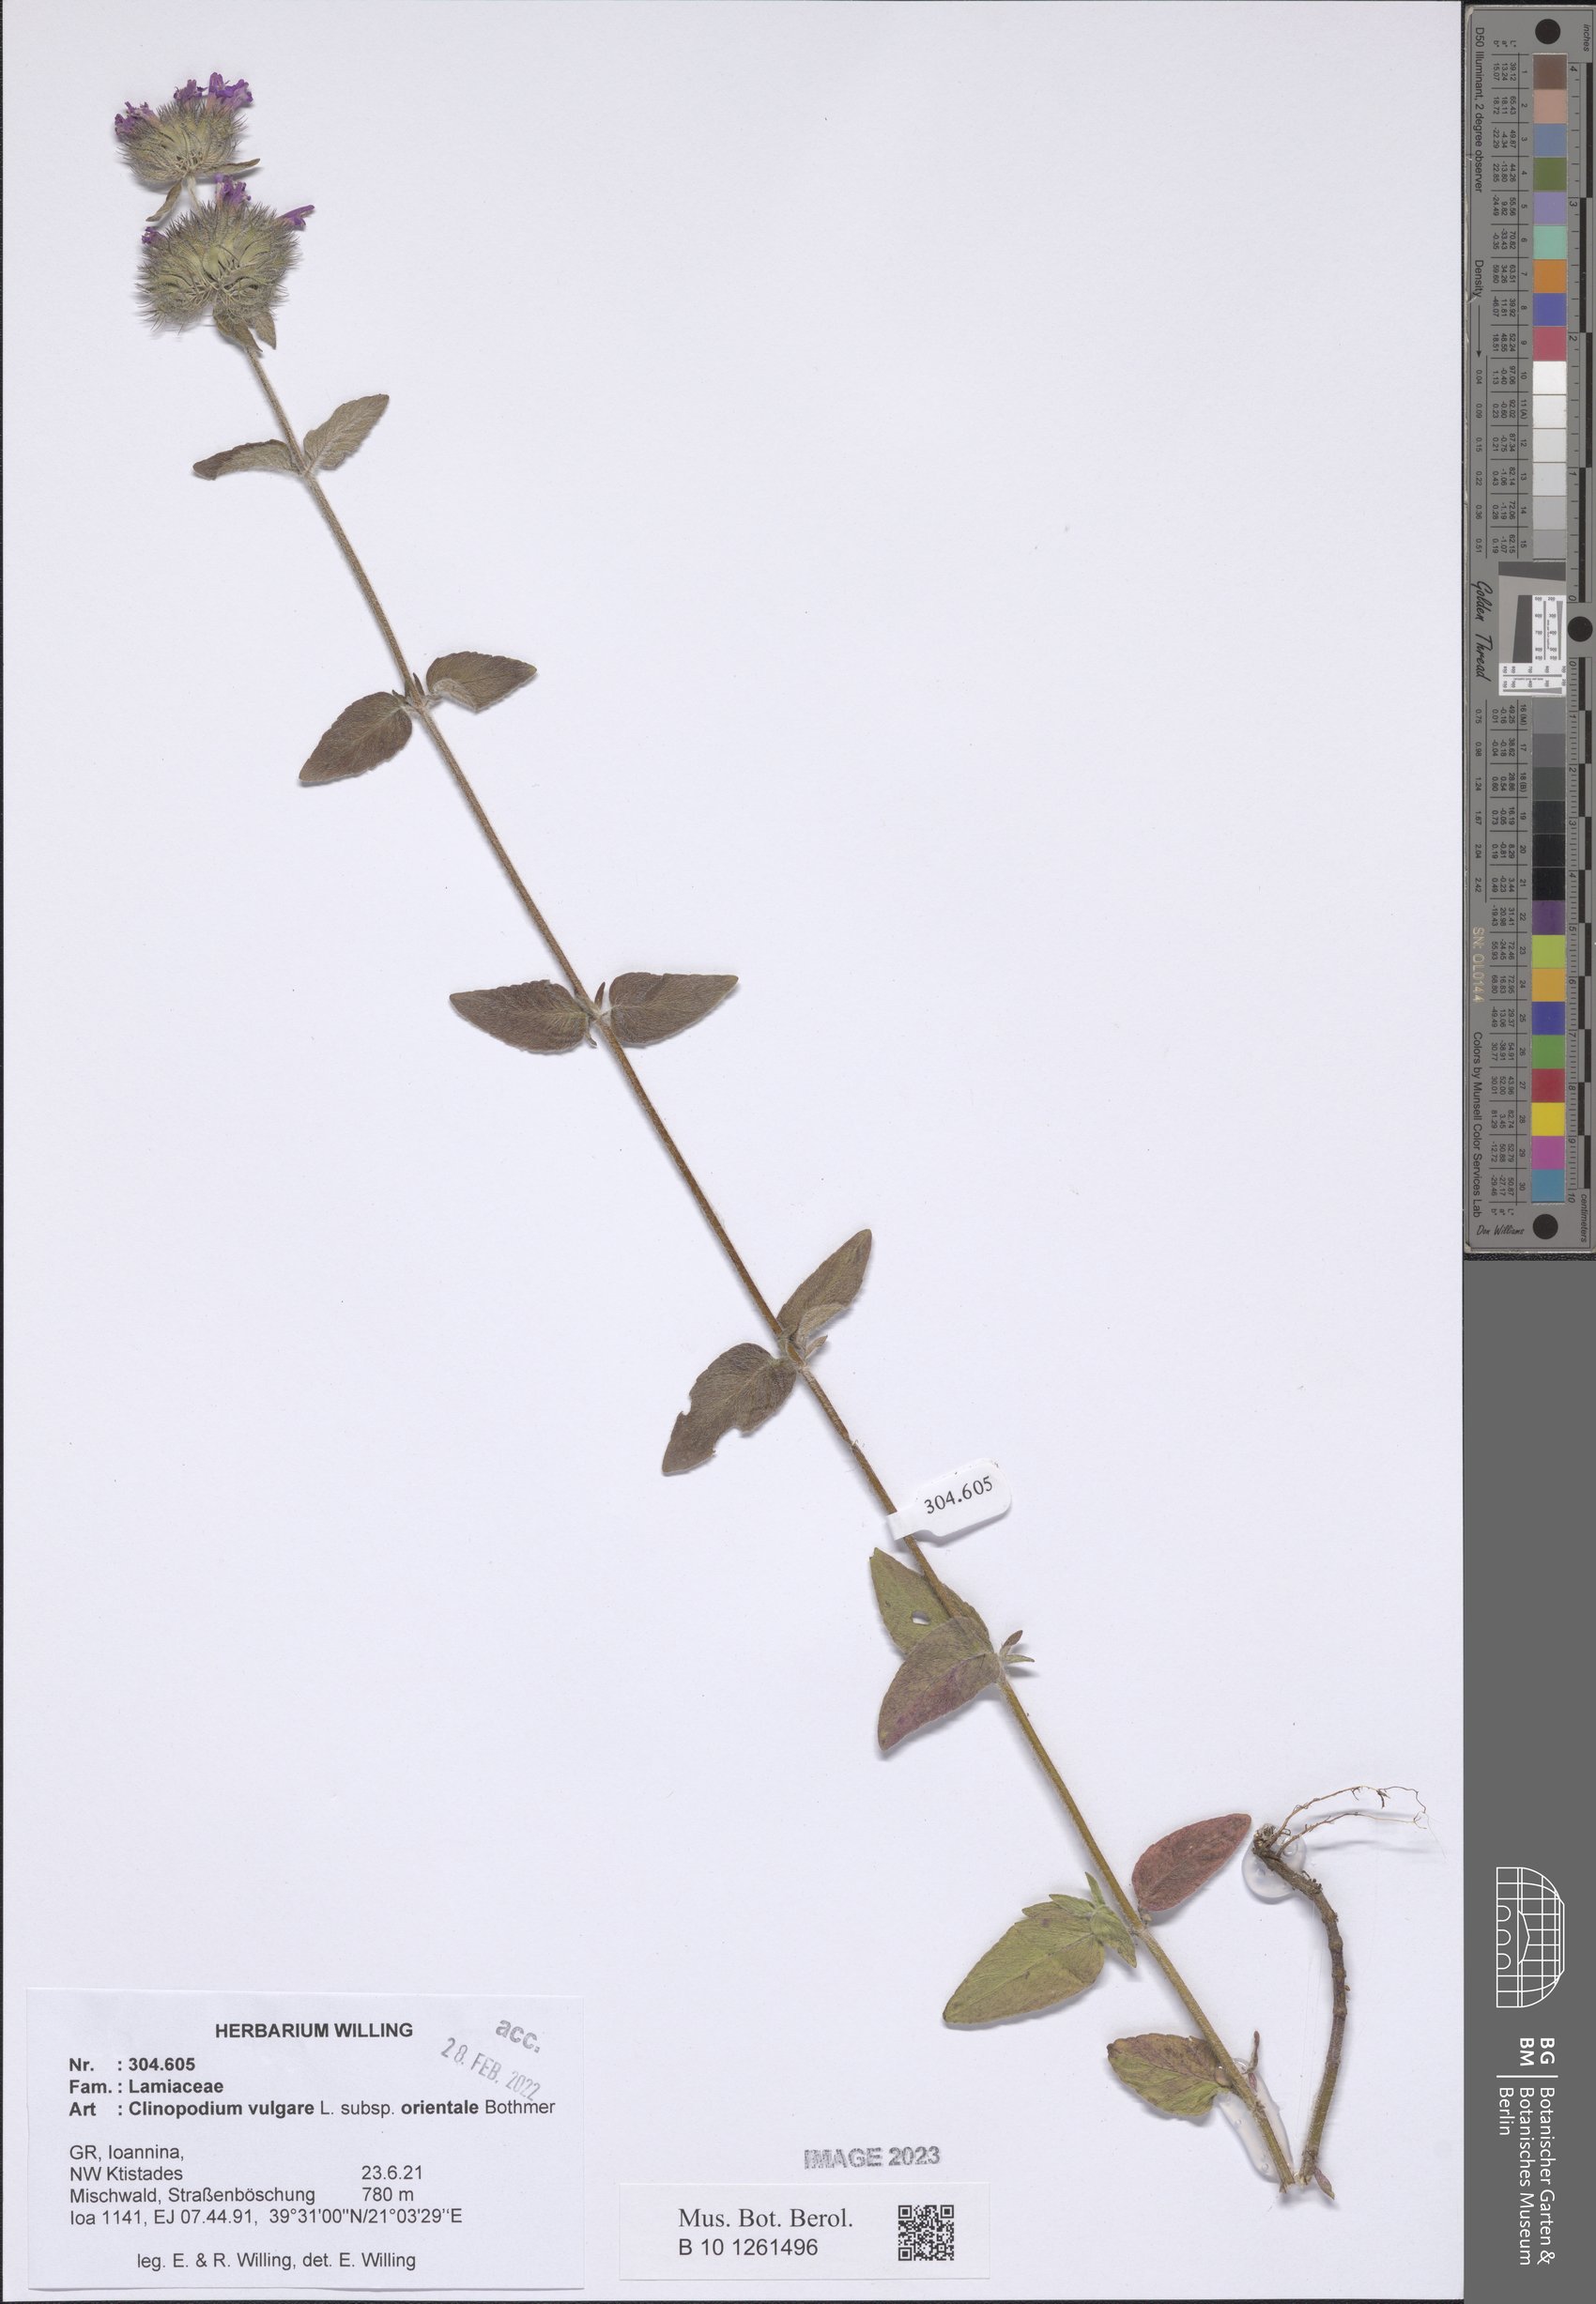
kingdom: Plantae
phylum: Tracheophyta
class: Magnoliopsida
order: Lamiales
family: Lamiaceae
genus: Clinopodium
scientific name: Clinopodium vulgare
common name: Wild basil
